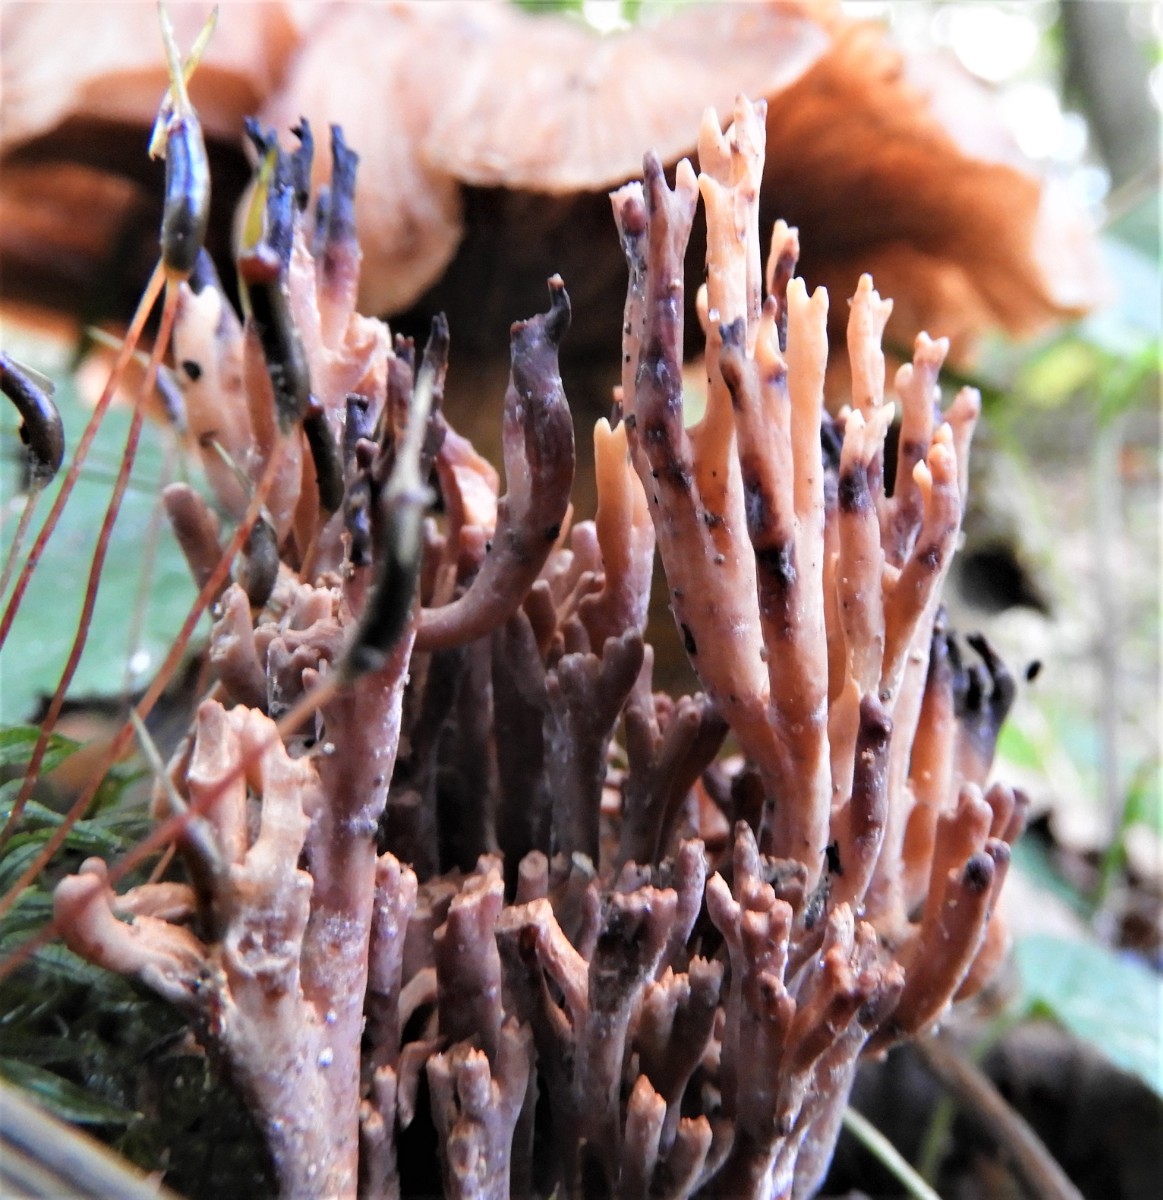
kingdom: Fungi
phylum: Basidiomycota
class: Agaricomycetes
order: Gomphales
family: Gomphaceae
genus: Ramaria
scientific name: Ramaria
